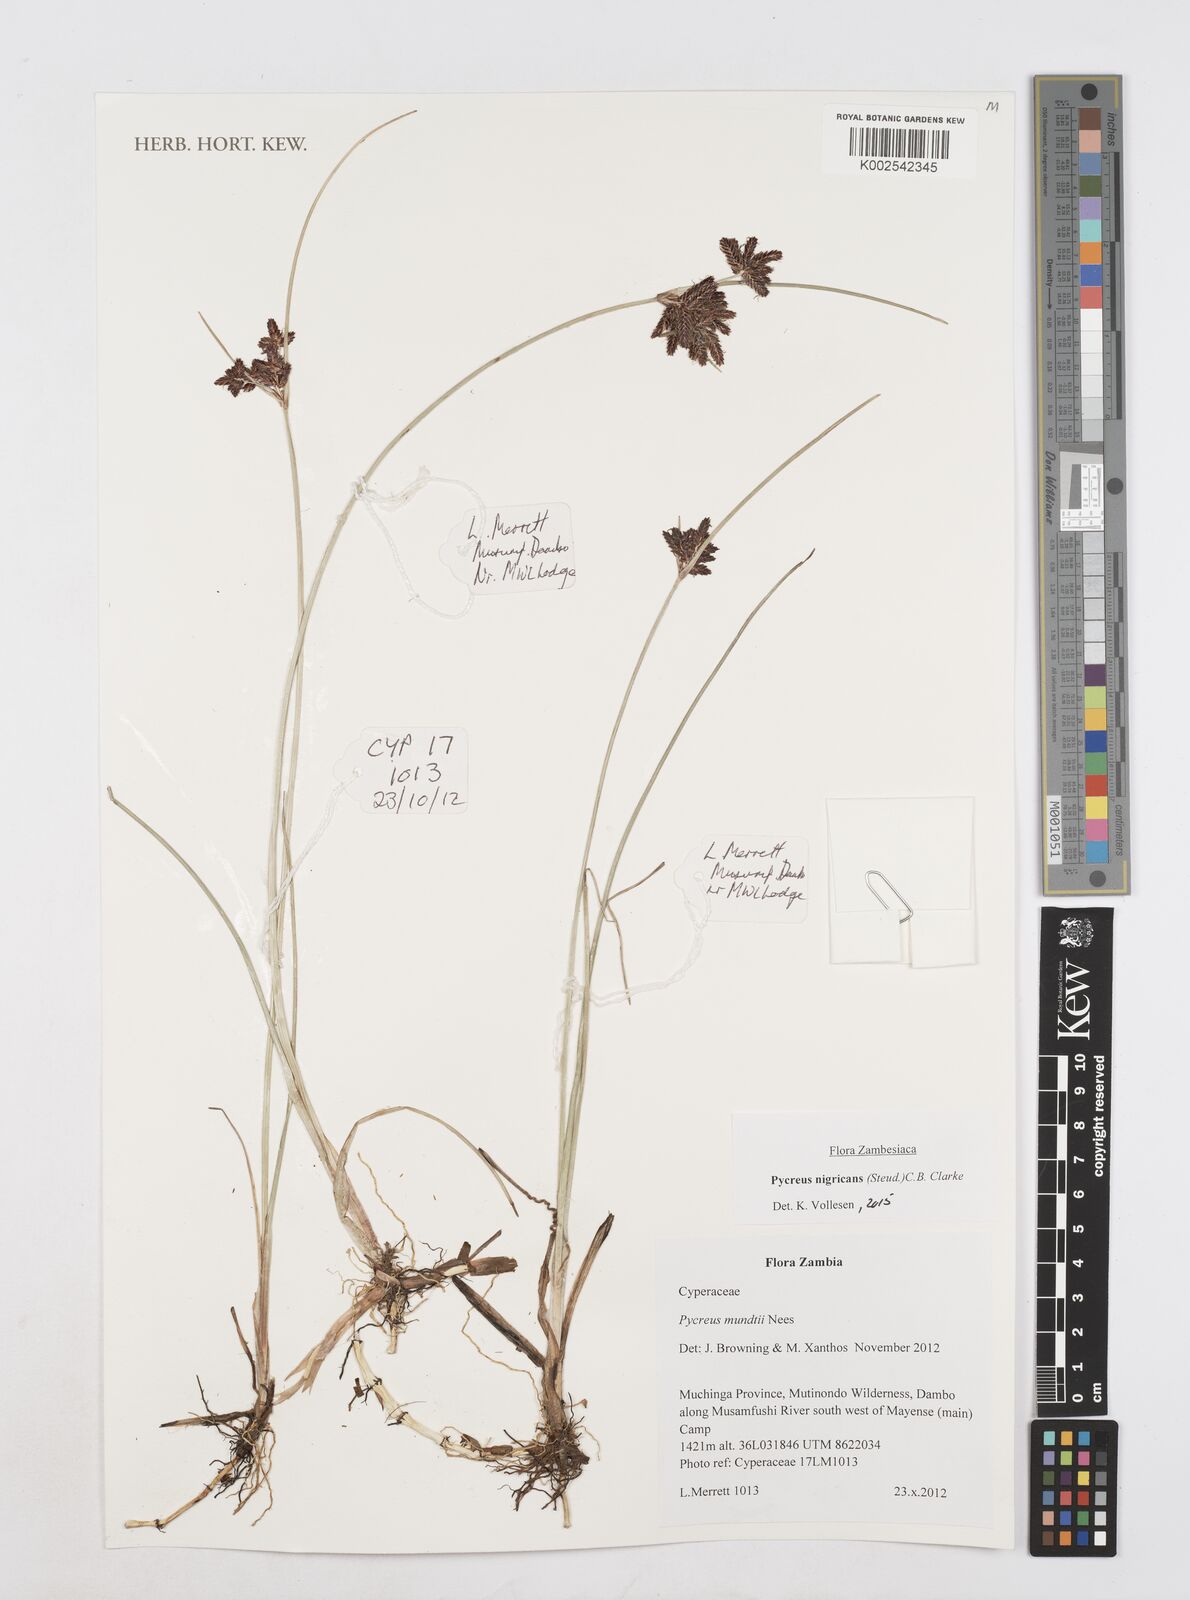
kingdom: Plantae
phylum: Tracheophyta
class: Liliopsida
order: Poales
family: Cyperaceae
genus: Cyperus
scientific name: Cyperus nigricans
